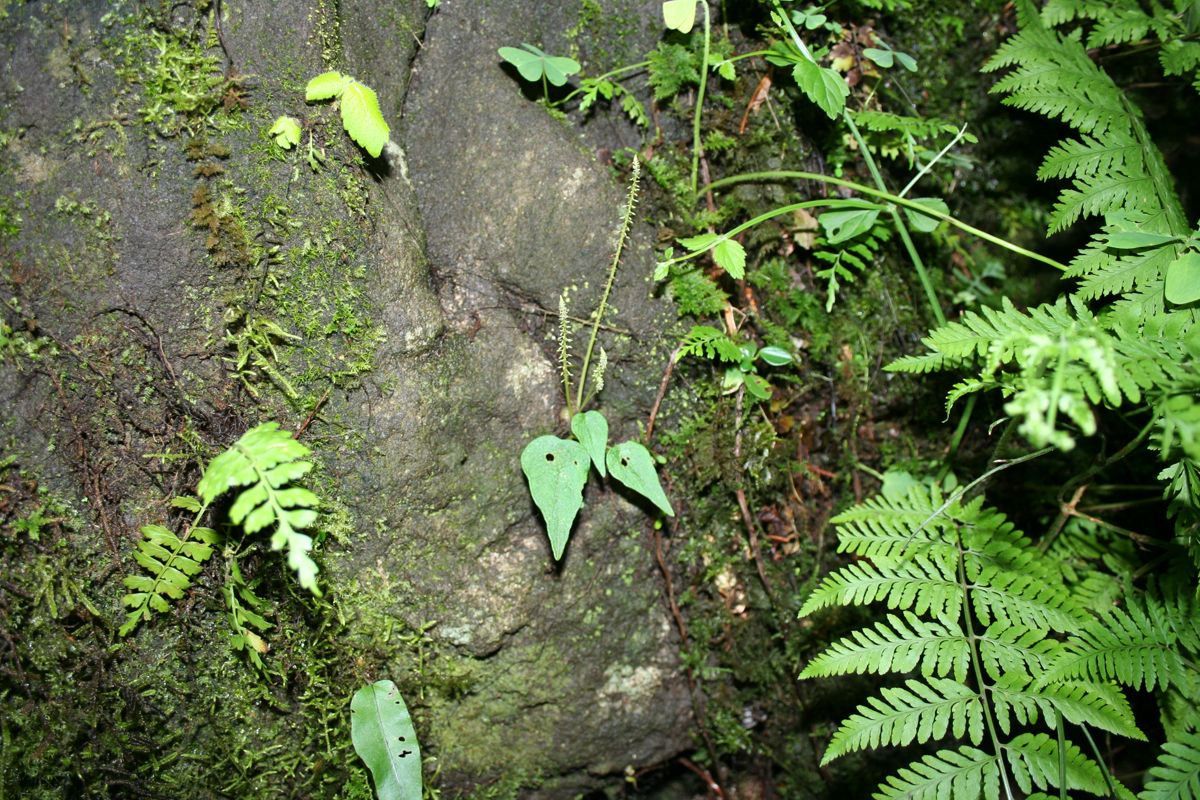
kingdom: Plantae
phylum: Tracheophyta
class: Magnoliopsida
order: Piperales
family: Piperaceae
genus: Peperomia
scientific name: Peperomia claytonioides
